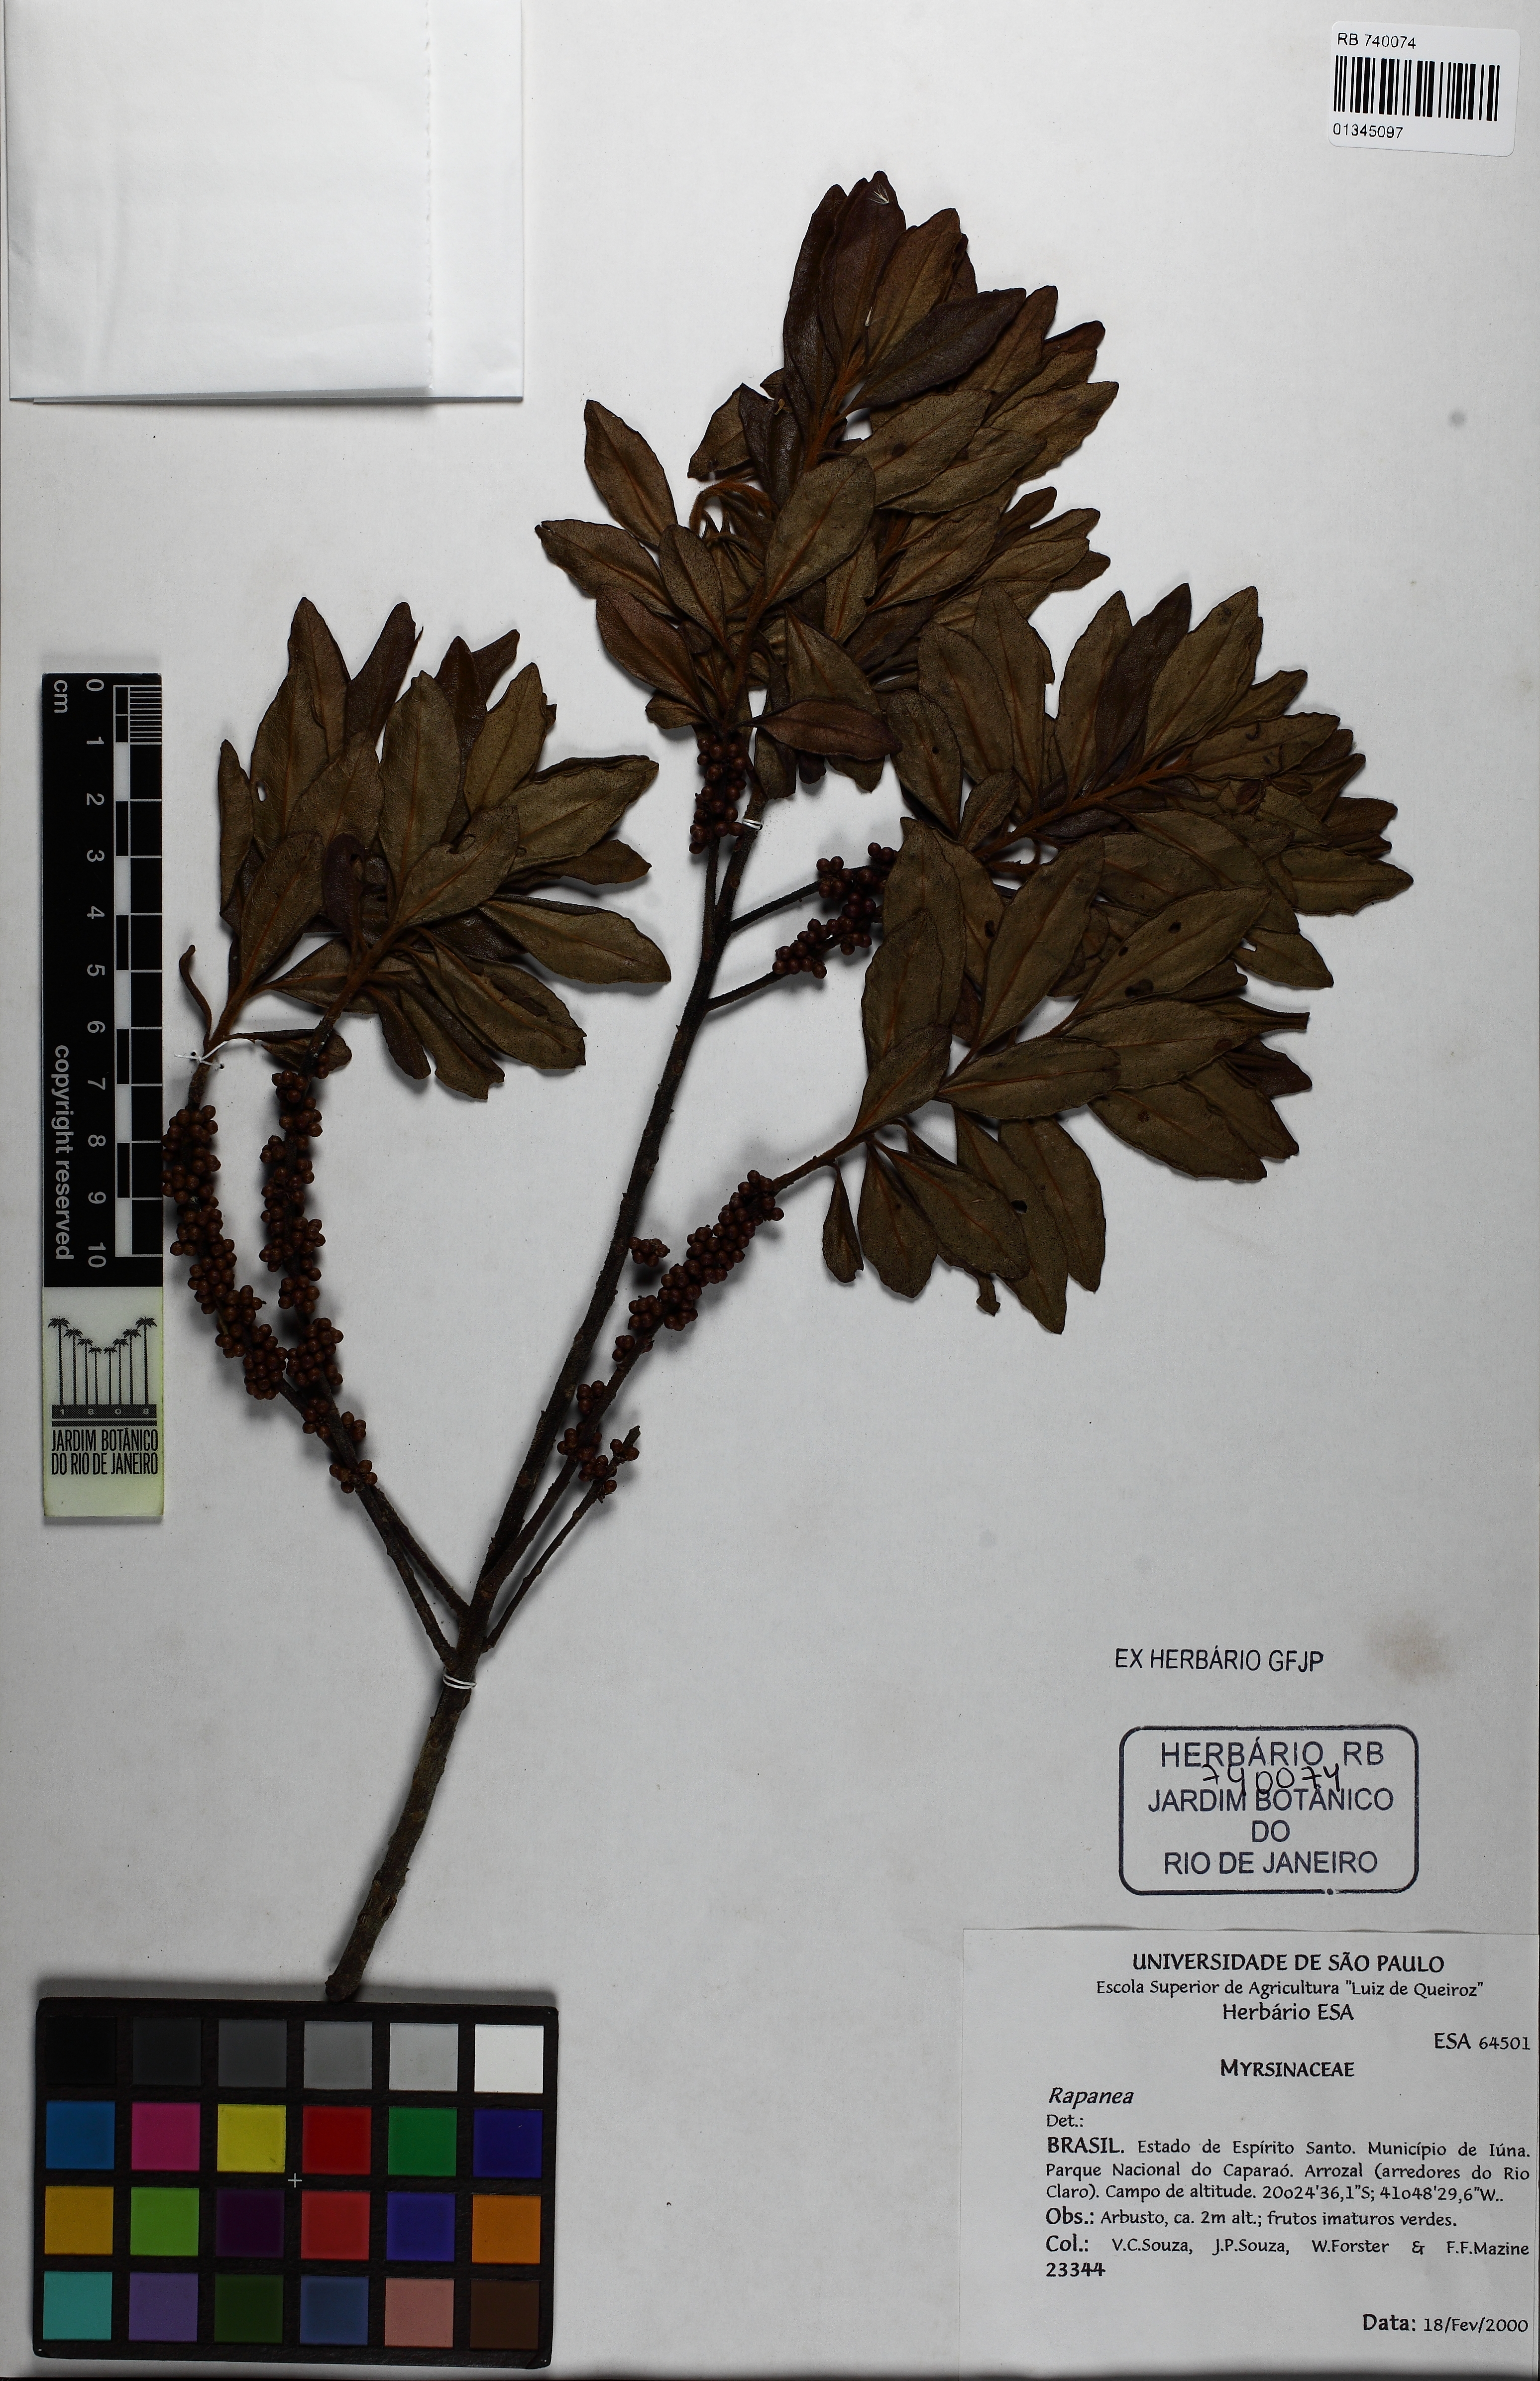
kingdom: Plantae
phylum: Tracheophyta
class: Magnoliopsida
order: Ericales
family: Primulaceae
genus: Myrsine
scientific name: Myrsine coriacea
